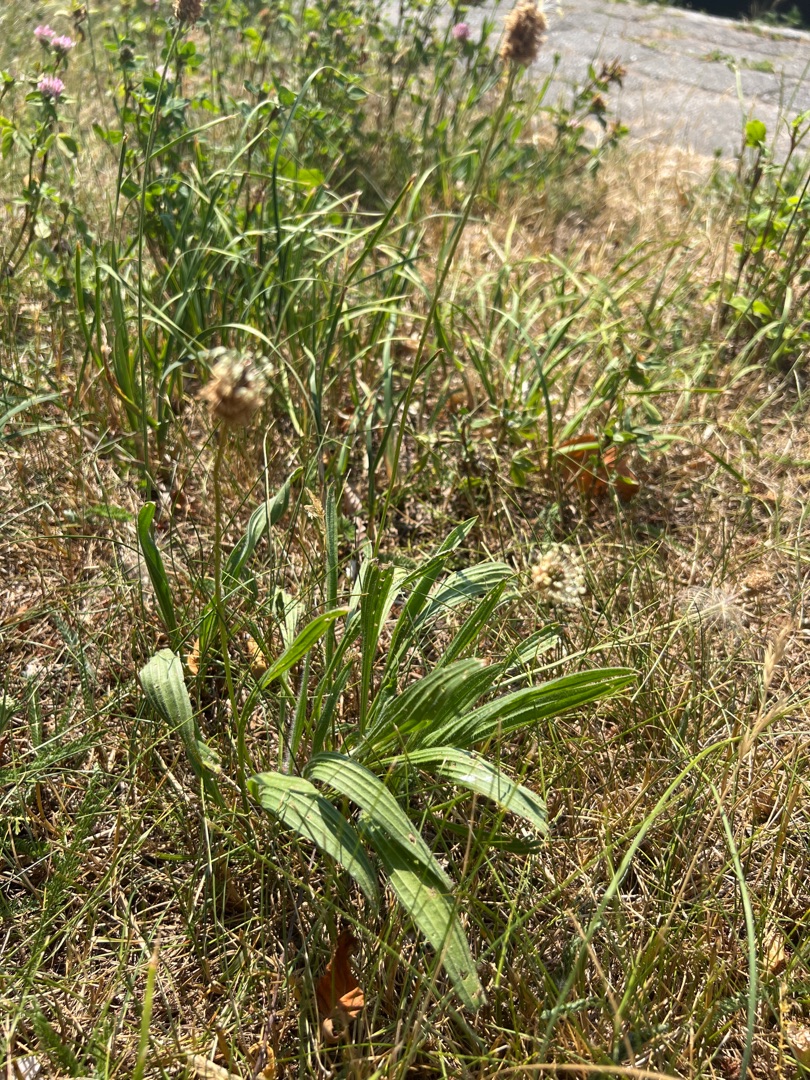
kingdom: Plantae
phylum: Tracheophyta
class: Magnoliopsida
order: Lamiales
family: Plantaginaceae
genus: Plantago
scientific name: Plantago lanceolata
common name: Lancet-vejbred
